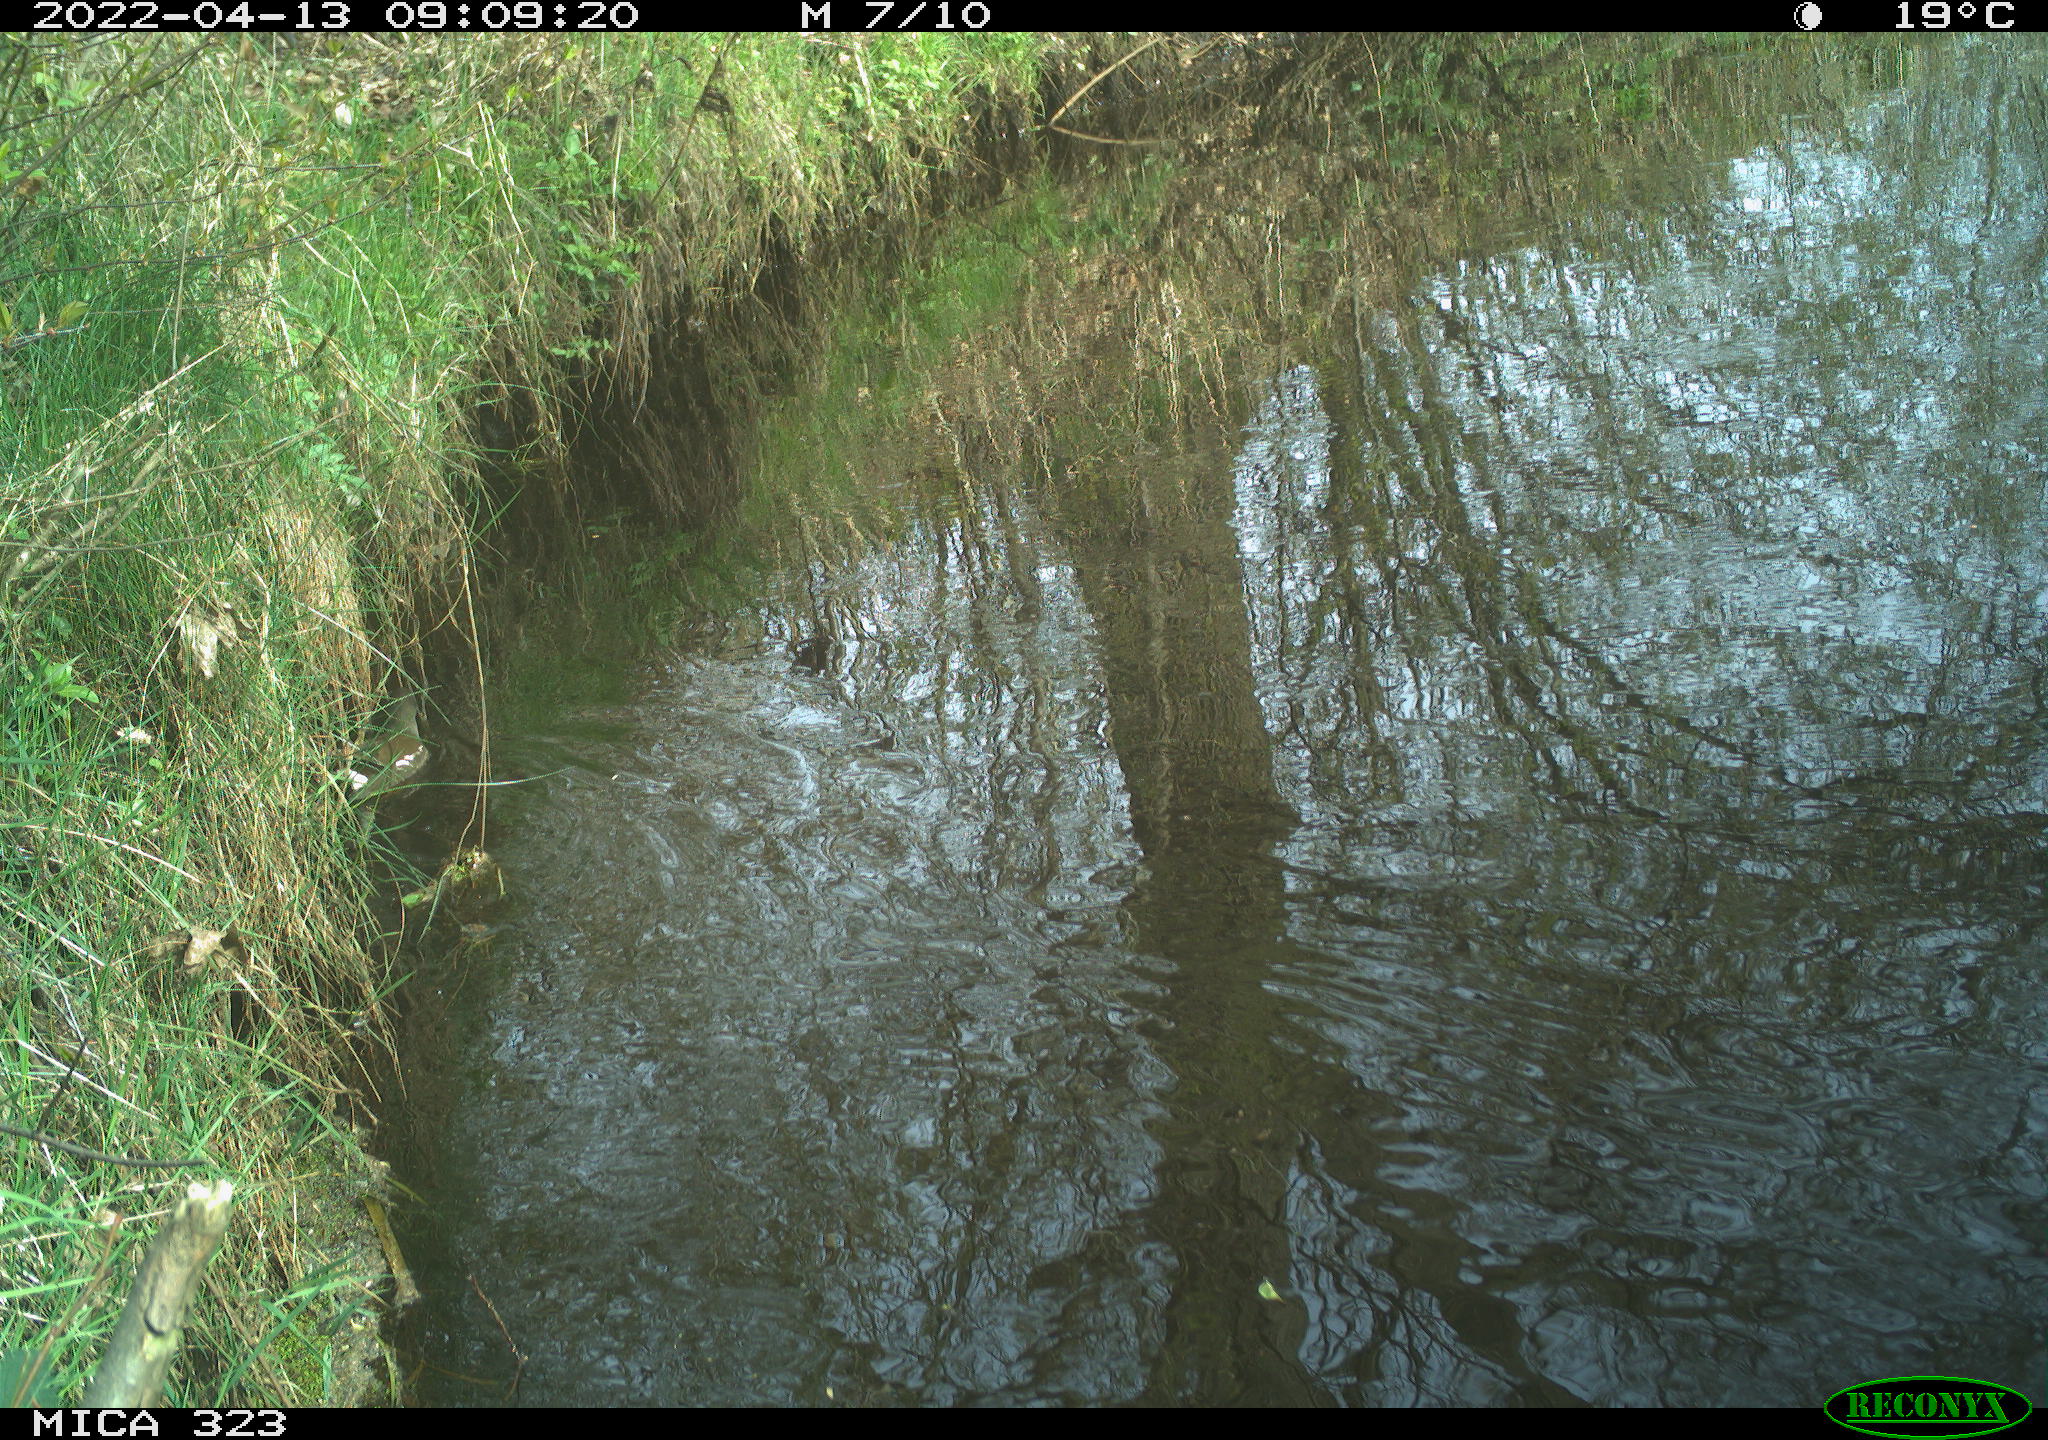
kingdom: Animalia
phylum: Chordata
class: Aves
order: Gruiformes
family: Rallidae
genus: Gallinula
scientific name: Gallinula chloropus
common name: Common moorhen
